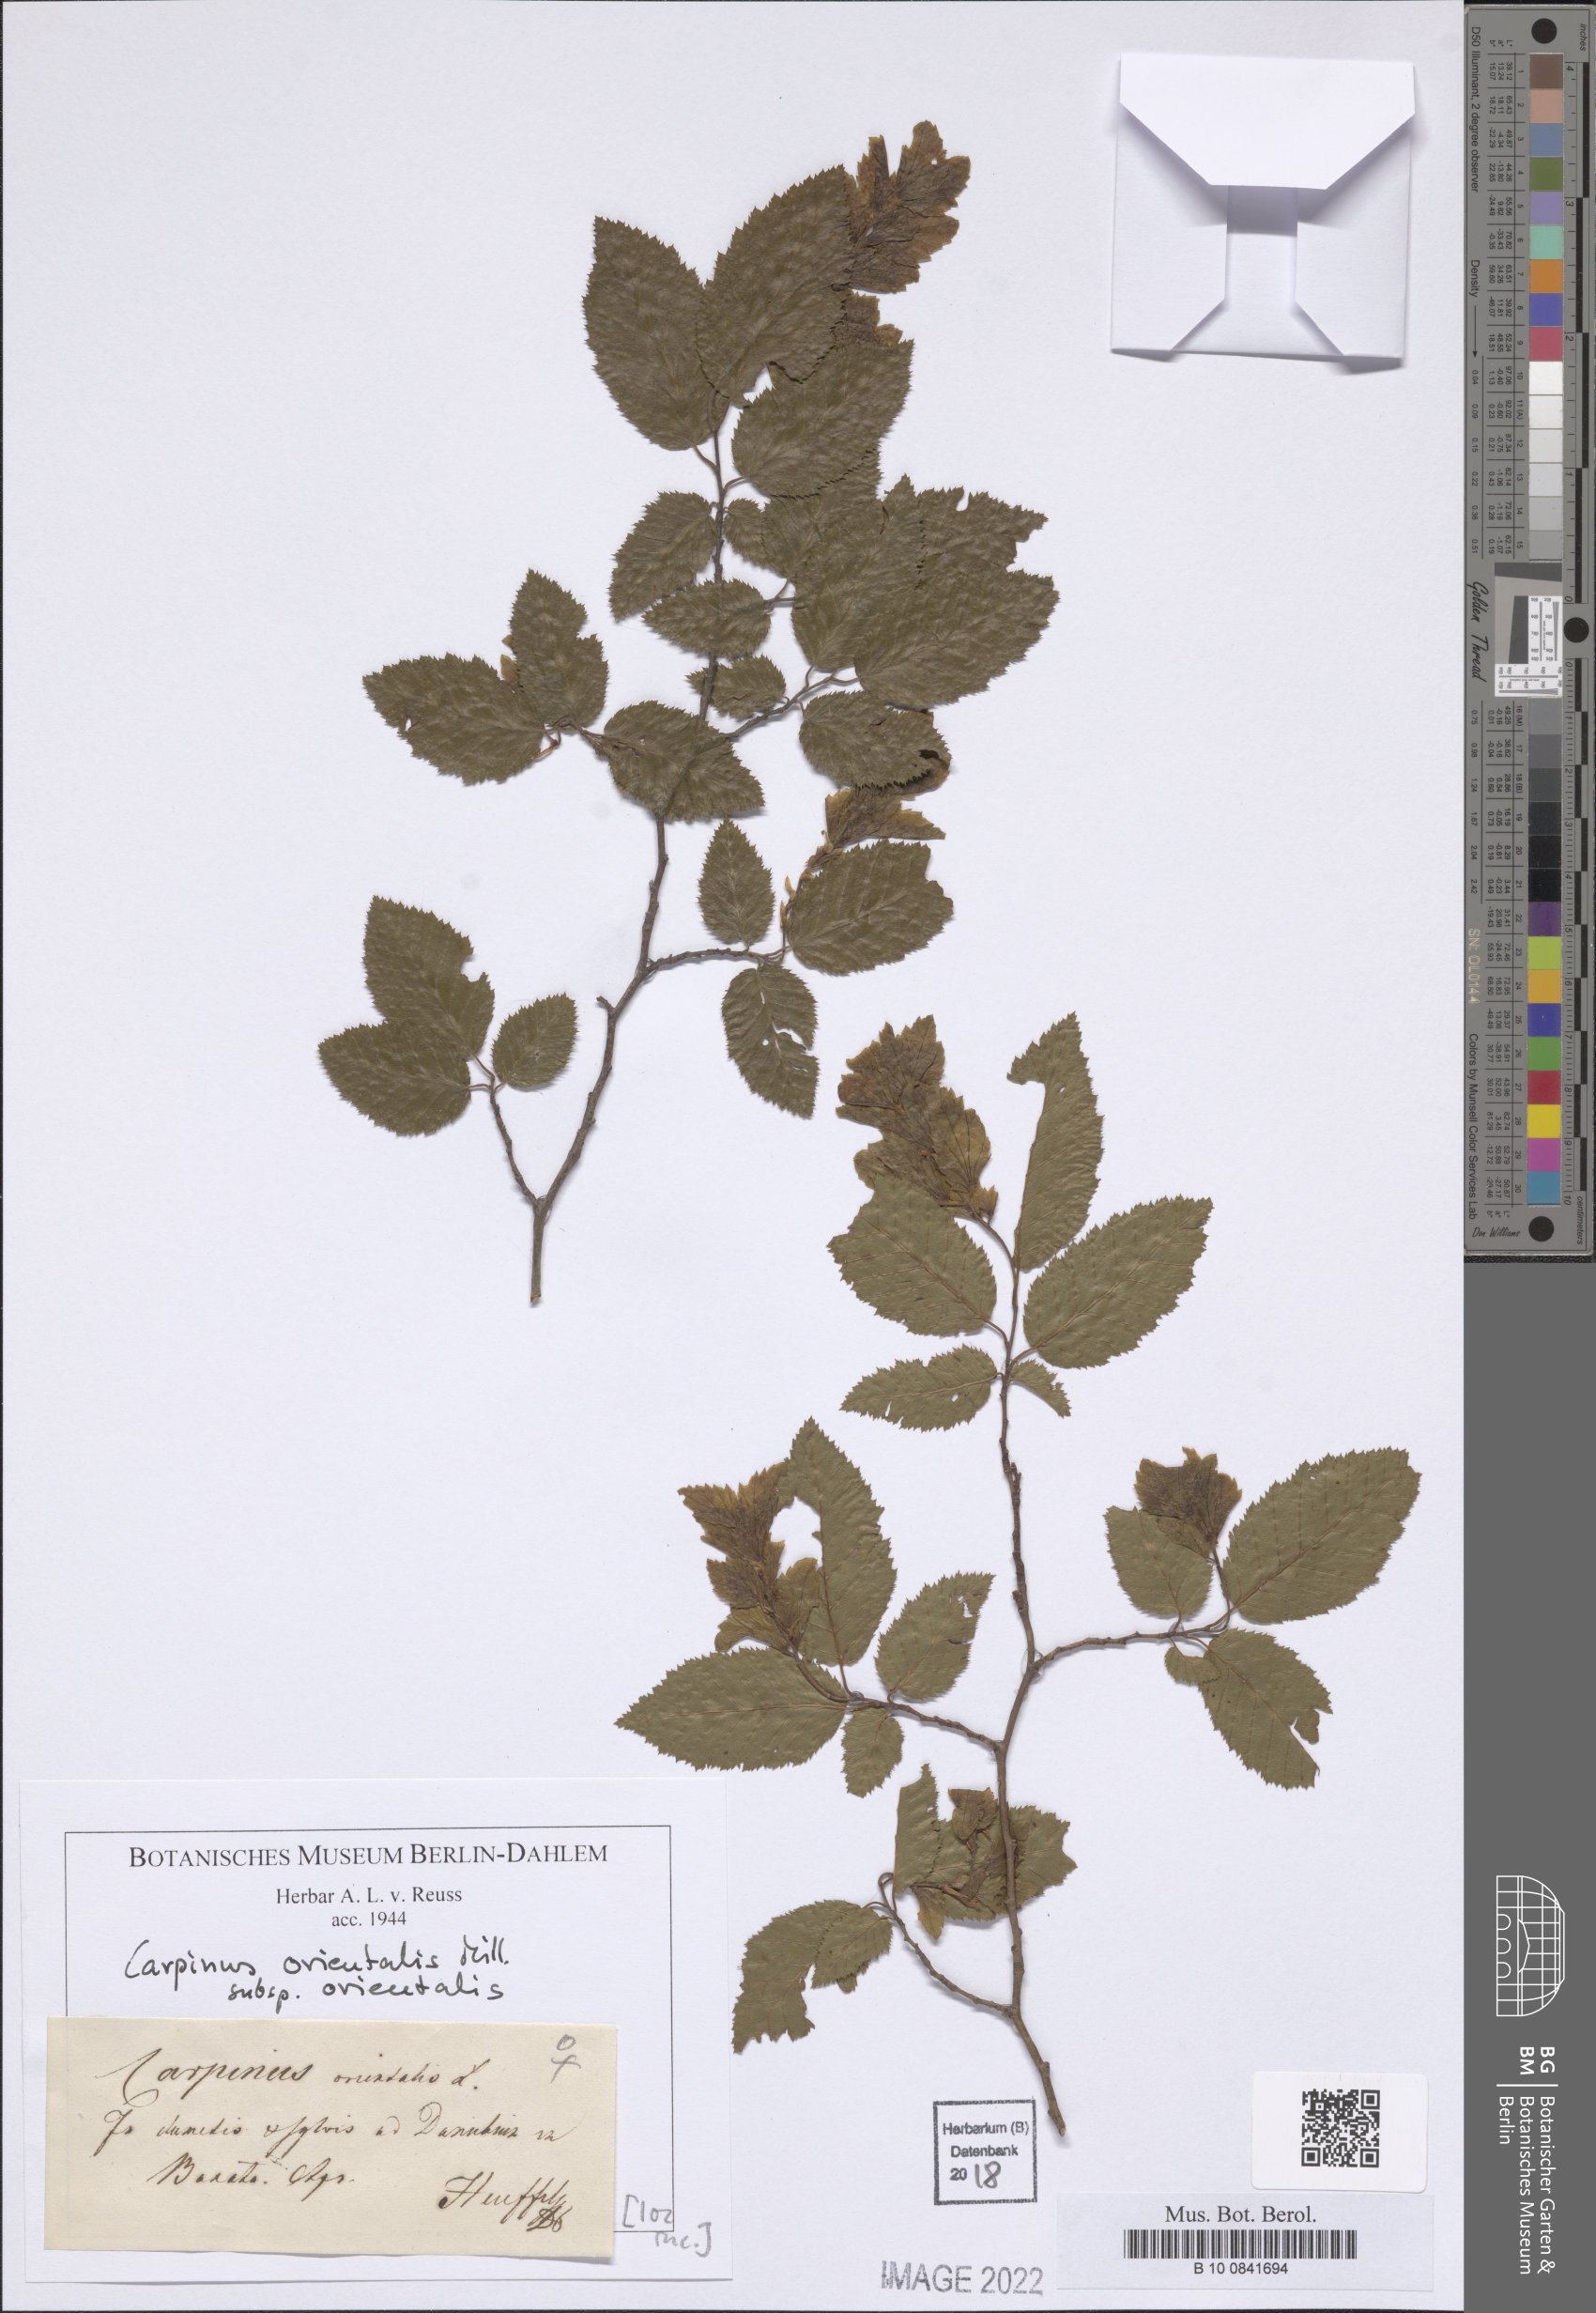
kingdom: Plantae
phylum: Tracheophyta
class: Magnoliopsida
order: Fagales
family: Betulaceae
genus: Carpinus
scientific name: Carpinus orientalis
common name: Eastern hornbeam
